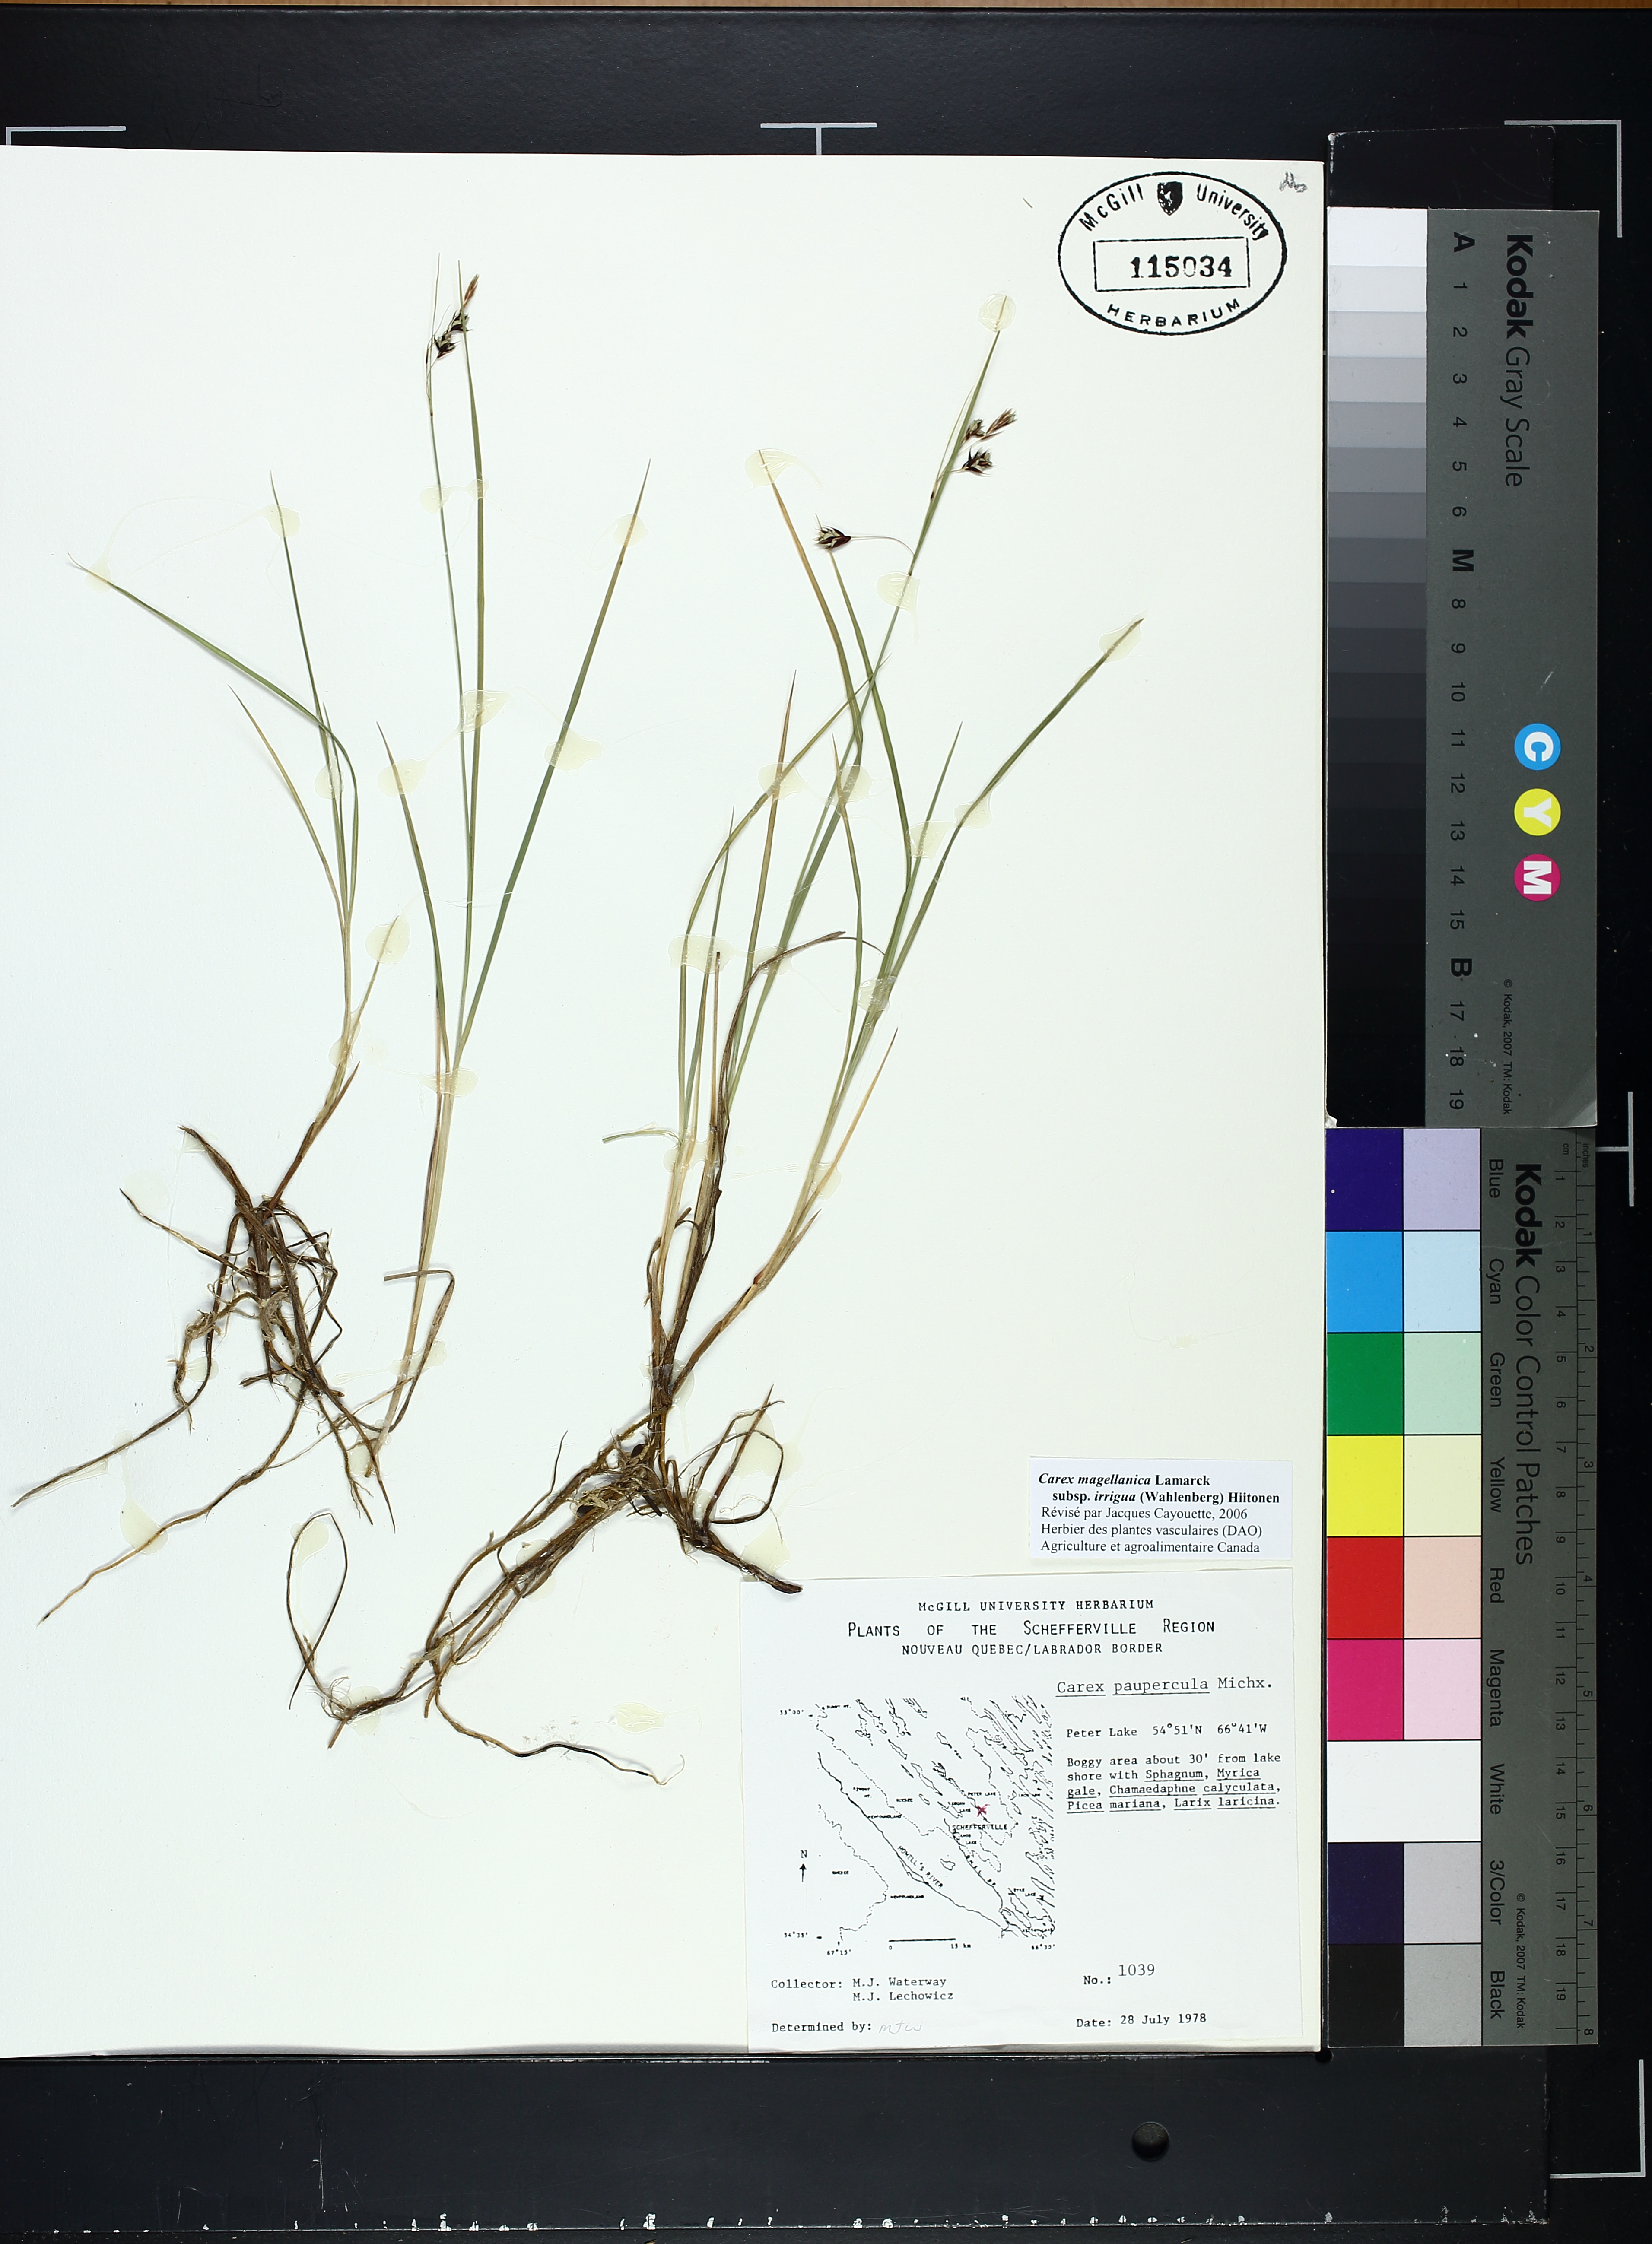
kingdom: Plantae
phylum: Tracheophyta
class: Liliopsida
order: Poales
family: Cyperaceae
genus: Carex
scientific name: Carex magellanica
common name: Bog sedge
